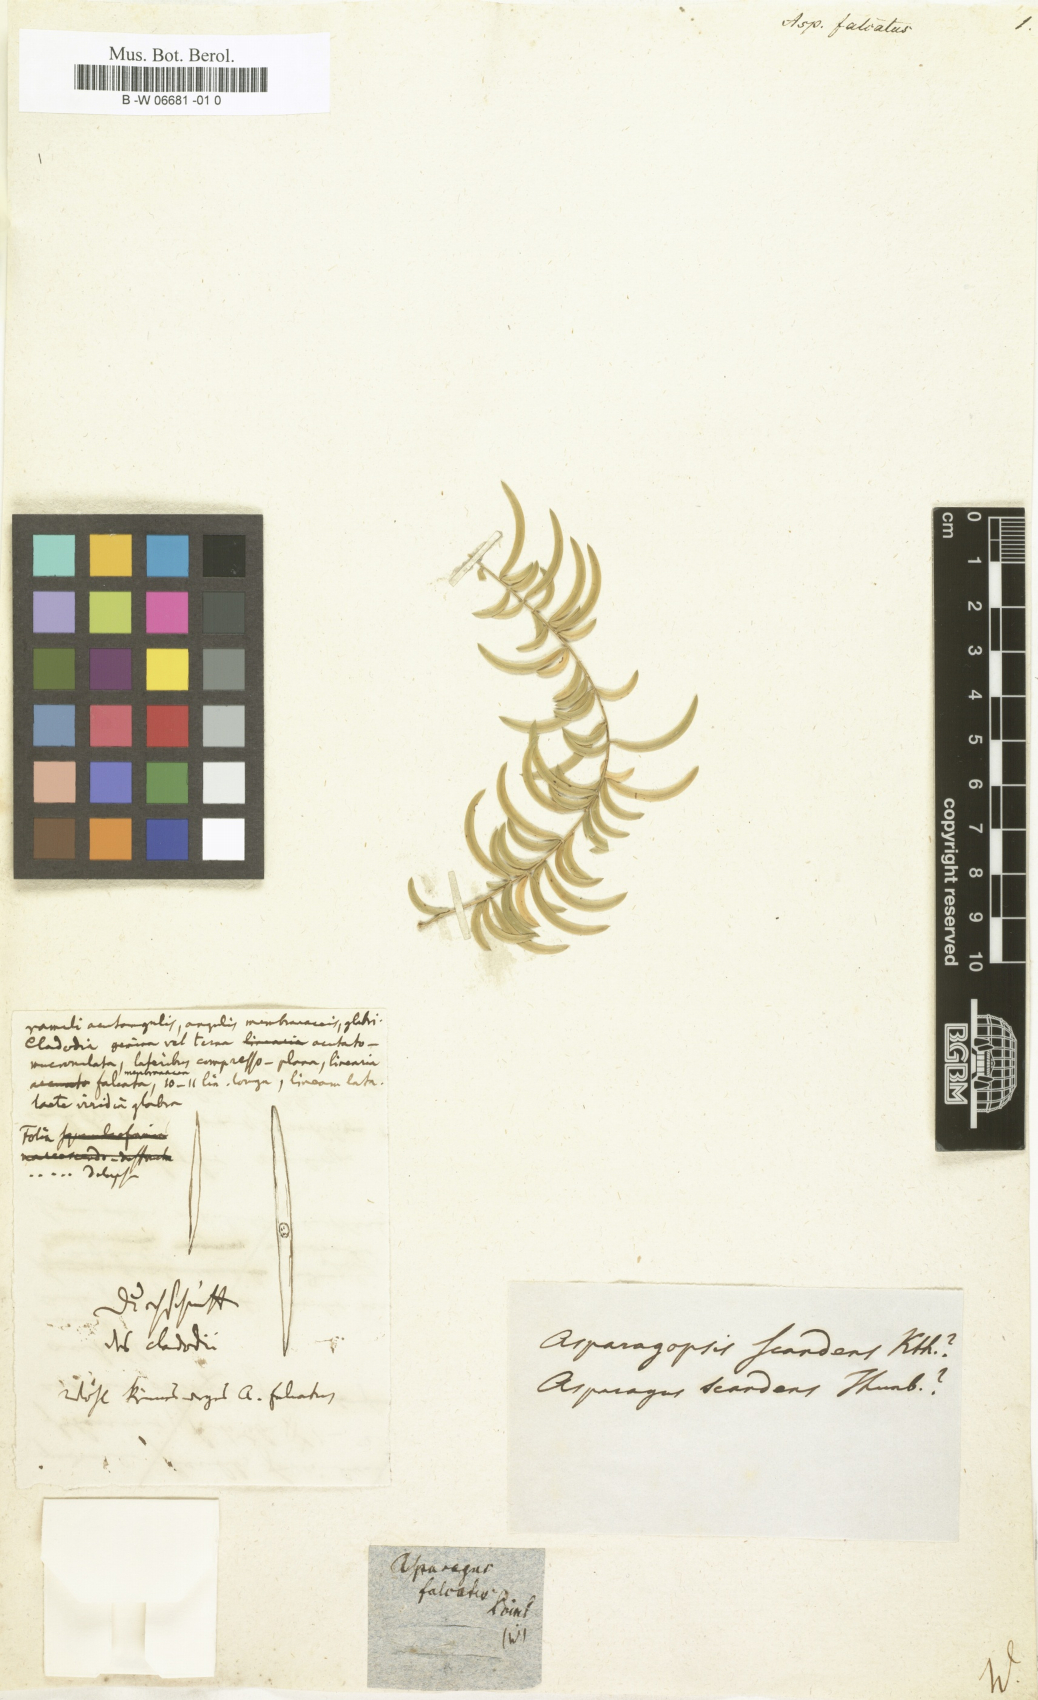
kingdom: Plantae
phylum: Tracheophyta
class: Liliopsida
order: Asparagales
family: Asparagaceae
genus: Asparagus
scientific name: Asparagus falcatus
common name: Asparagus
